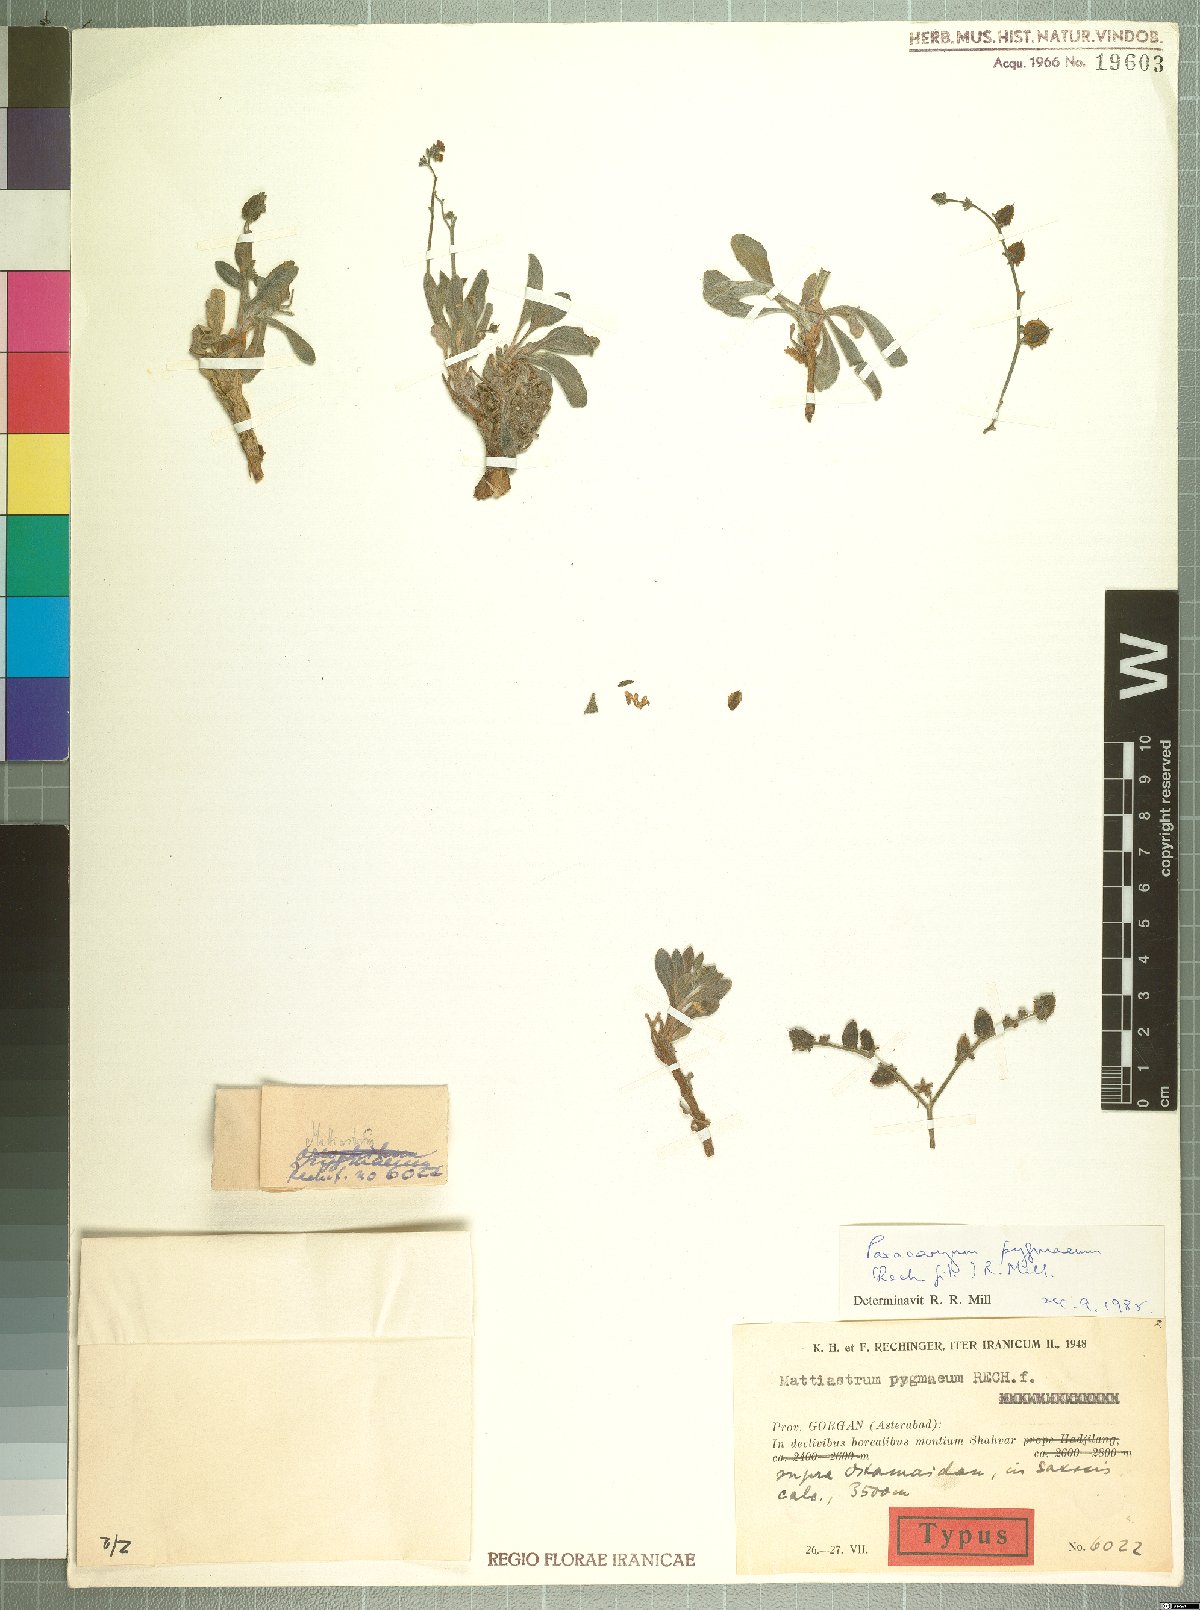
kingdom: Plantae
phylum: Tracheophyta
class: Magnoliopsida
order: Boraginales
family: Boraginaceae
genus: Paracaryum
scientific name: Paracaryum pygmaeum
